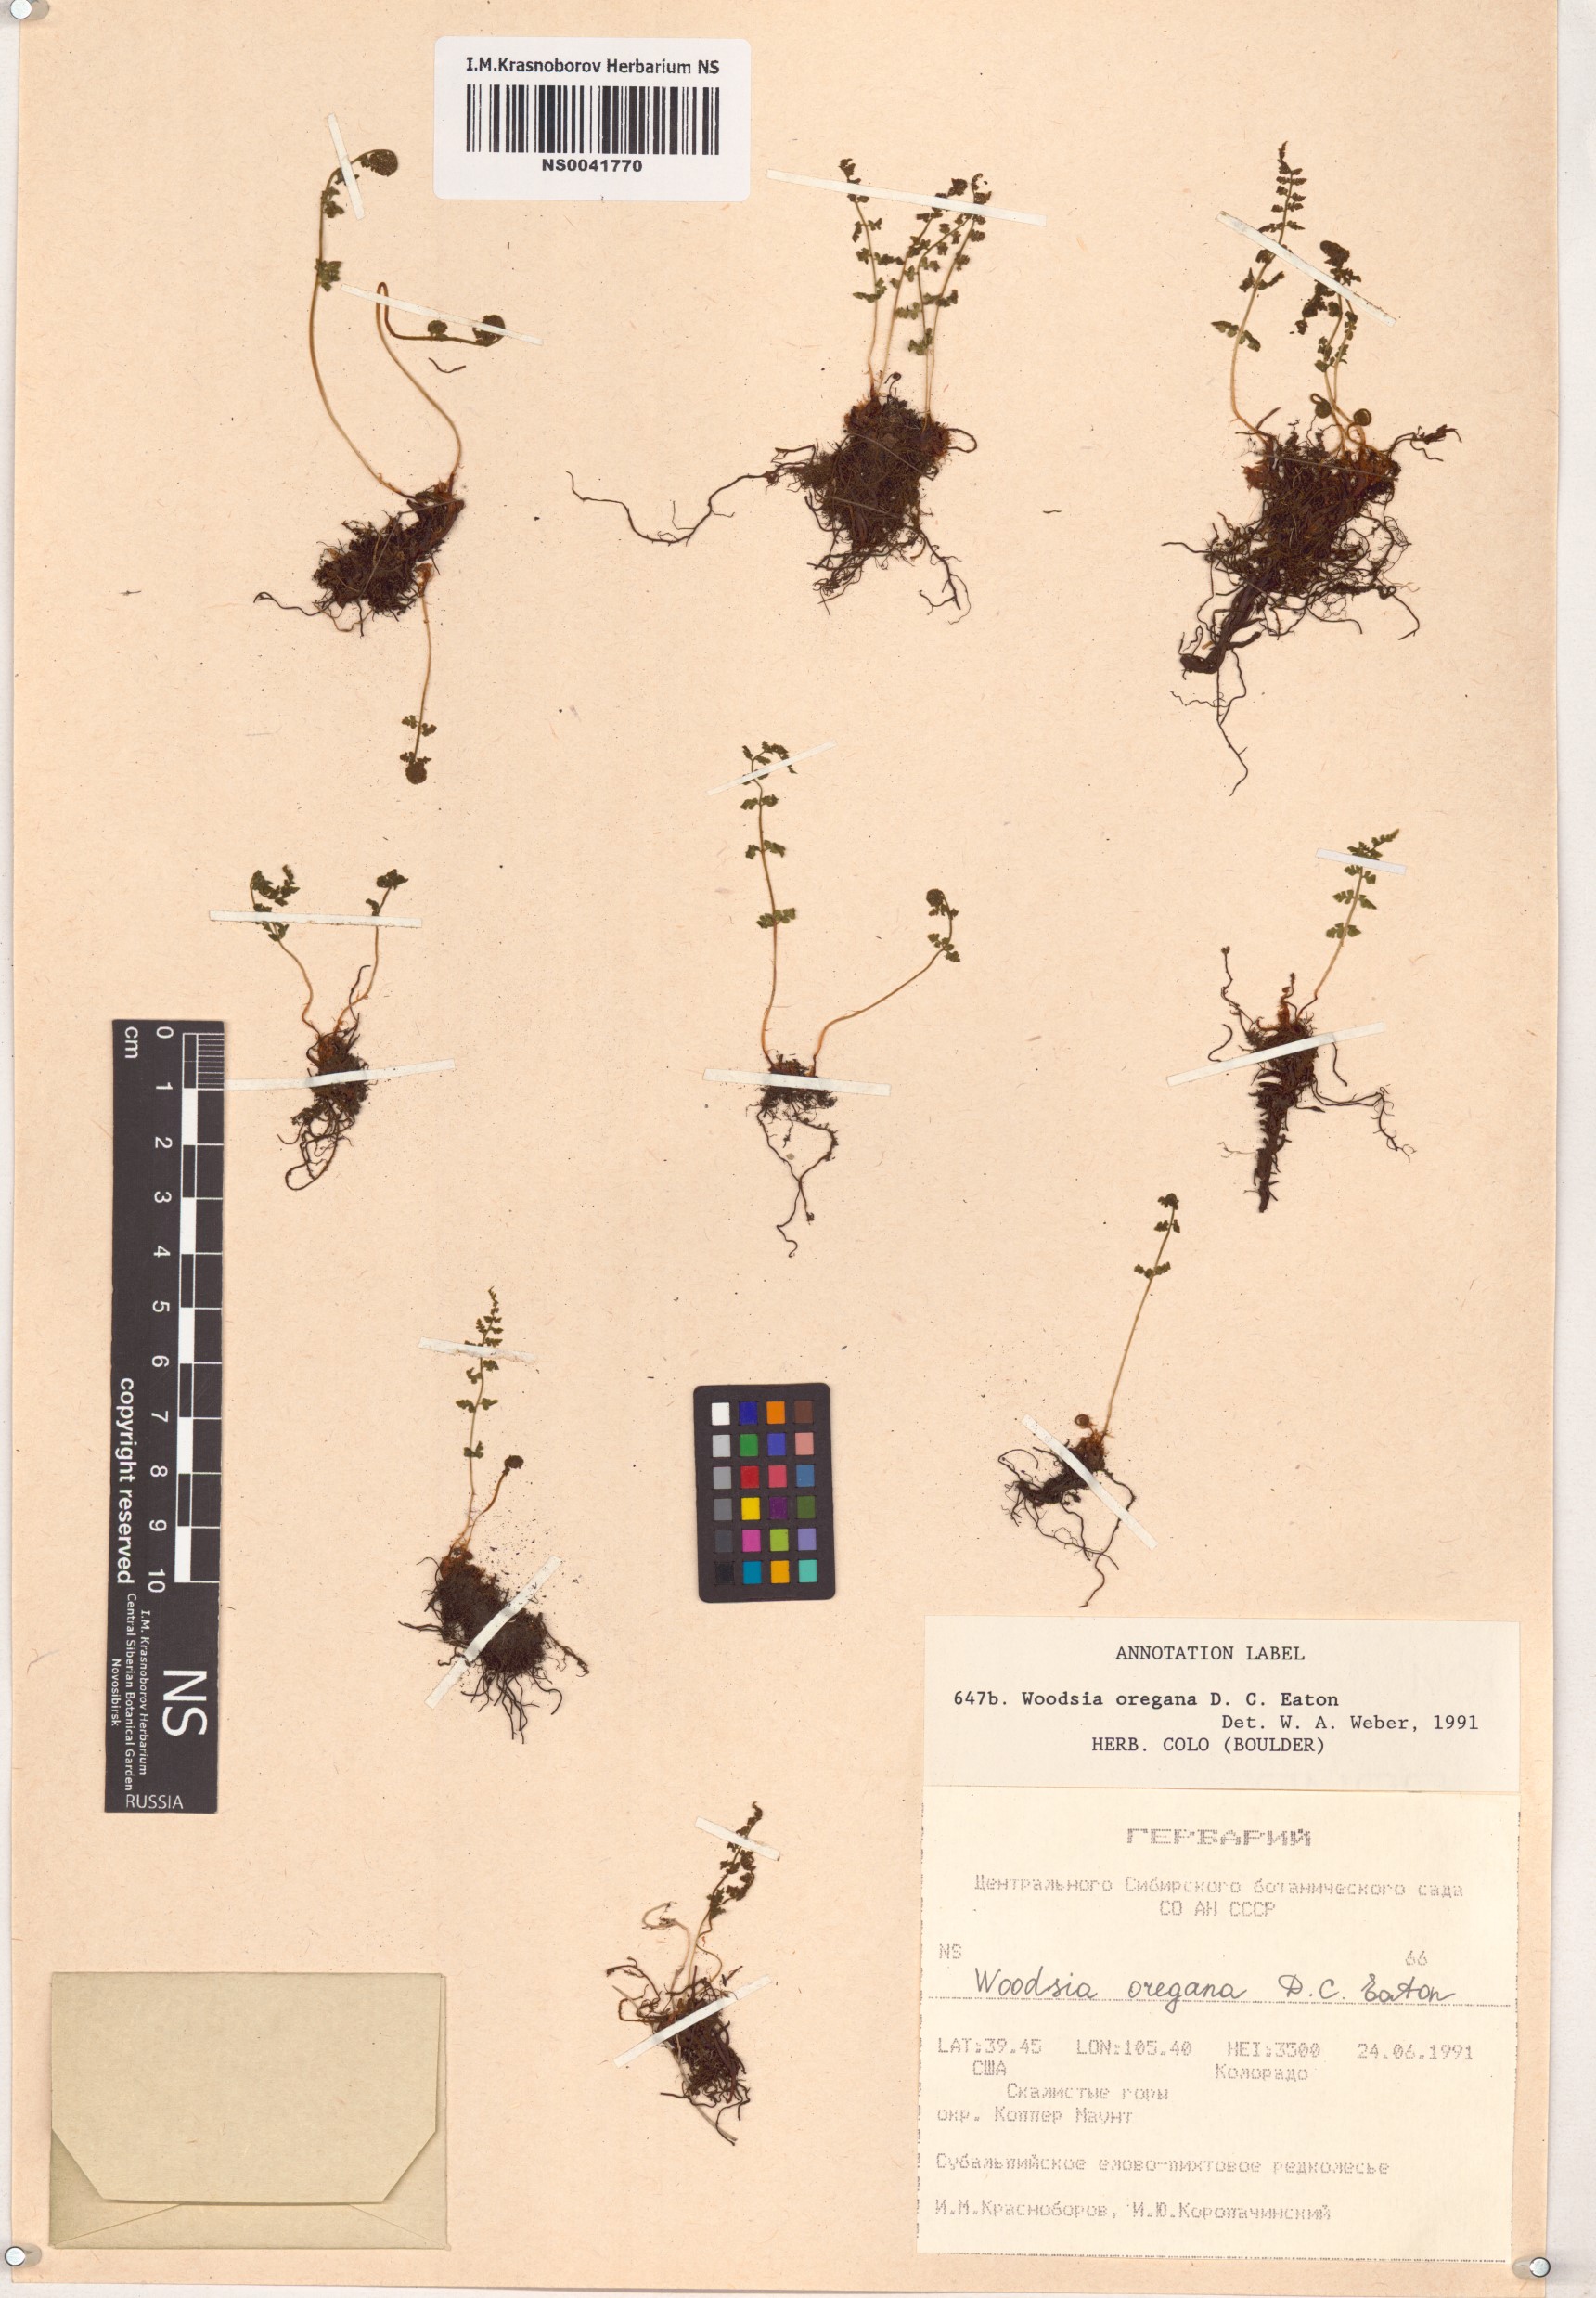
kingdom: Plantae
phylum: Tracheophyta
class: Polypodiopsida
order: Polypodiales
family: Woodsiaceae
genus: Physematium
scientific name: Physematium oreganum
